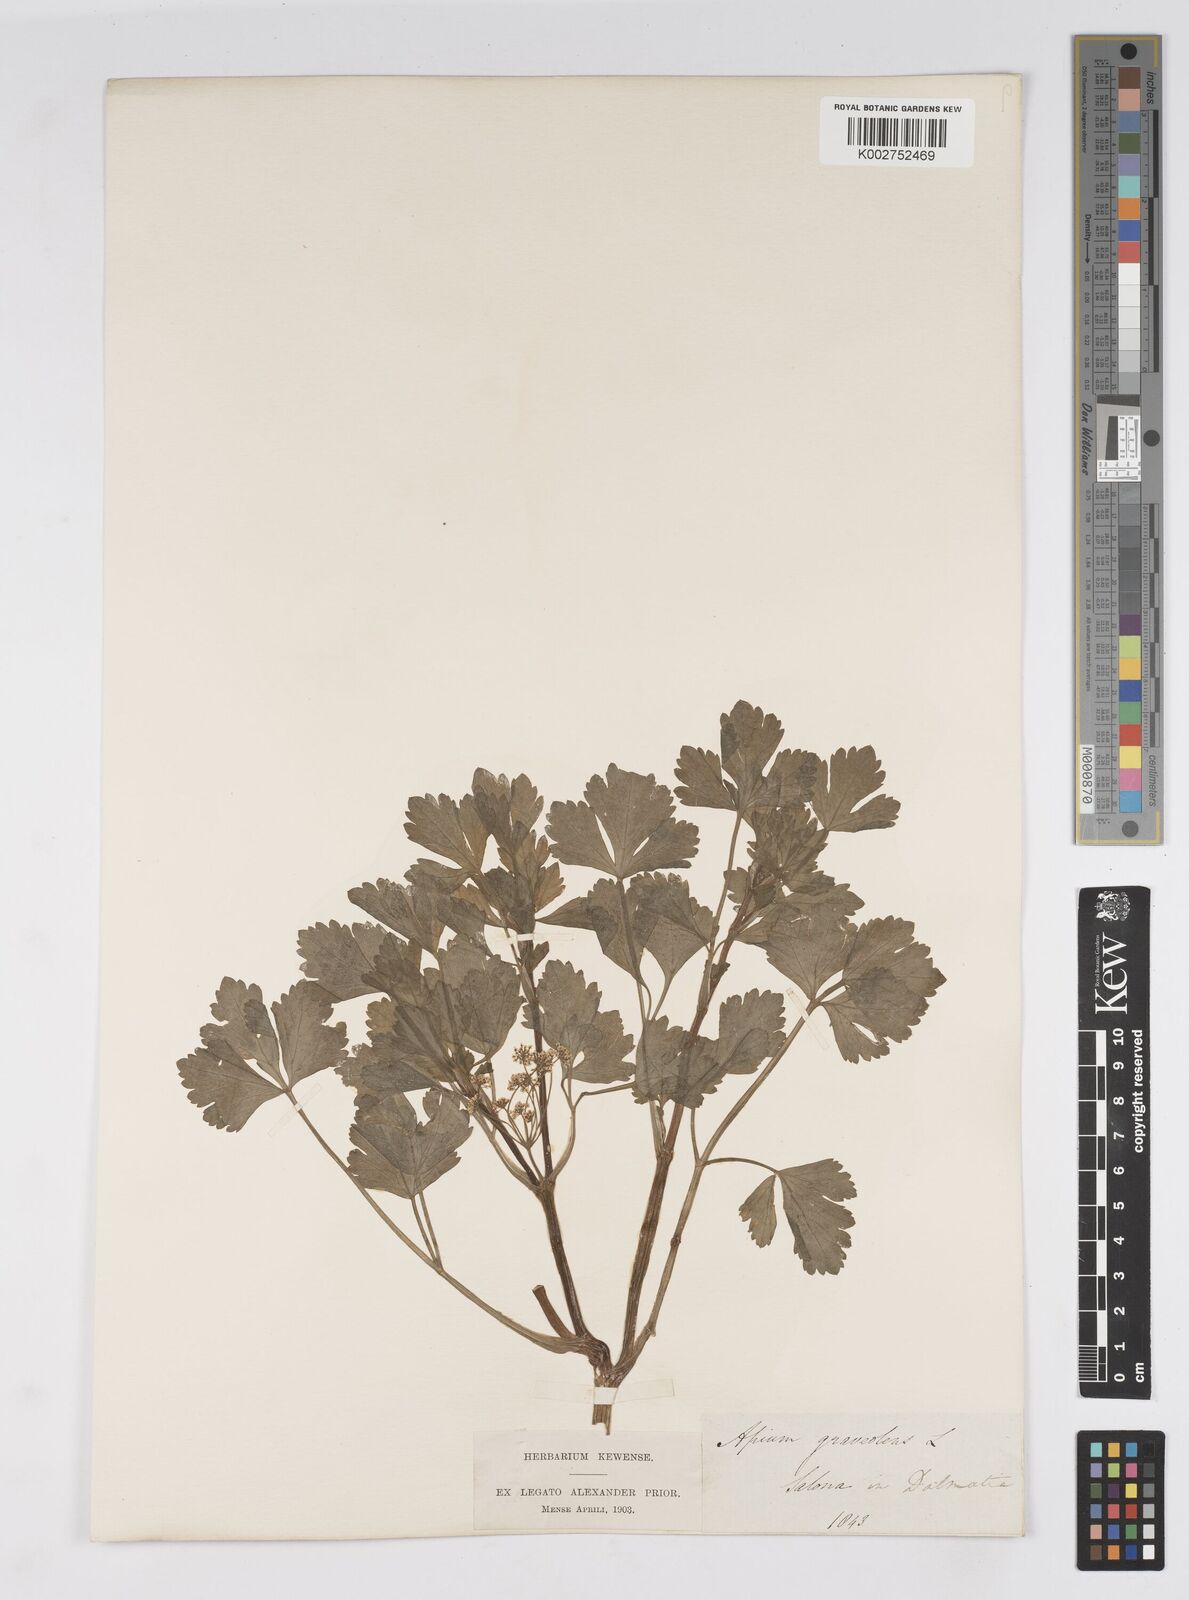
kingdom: Plantae
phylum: Tracheophyta
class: Magnoliopsida
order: Apiales
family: Apiaceae
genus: Apium
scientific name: Apium graveolens
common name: Wild celery
